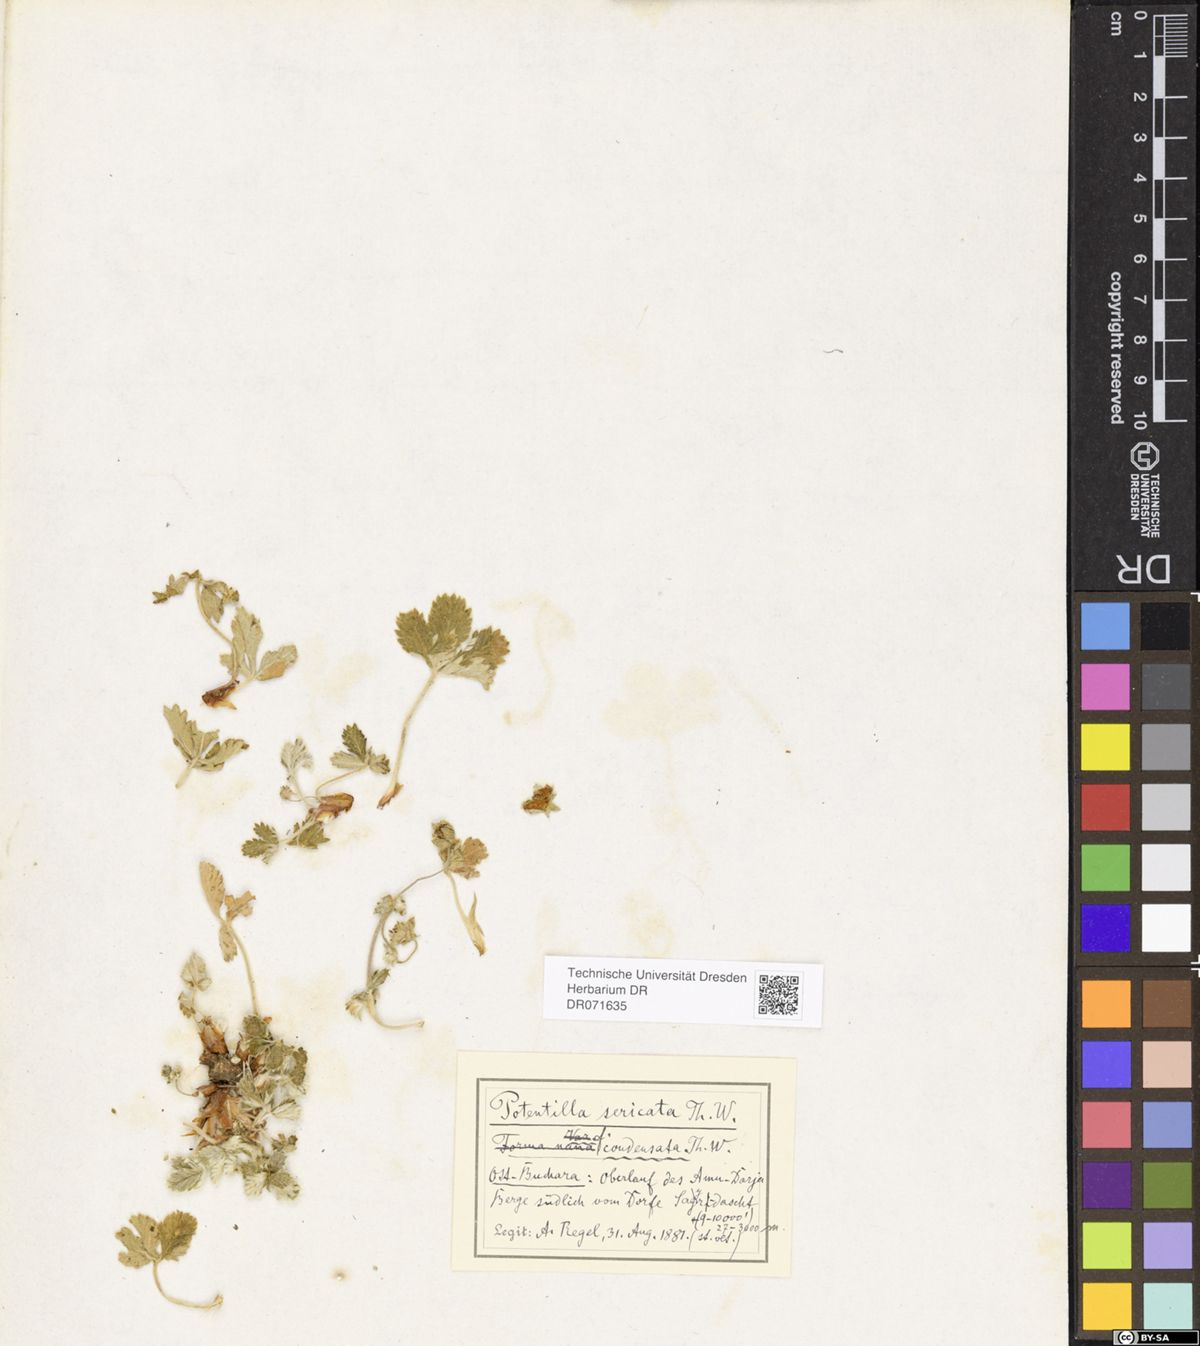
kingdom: Plantae
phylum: Tracheophyta
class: Magnoliopsida
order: Rosales
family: Rosaceae
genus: Potentilla
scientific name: Potentilla algida
